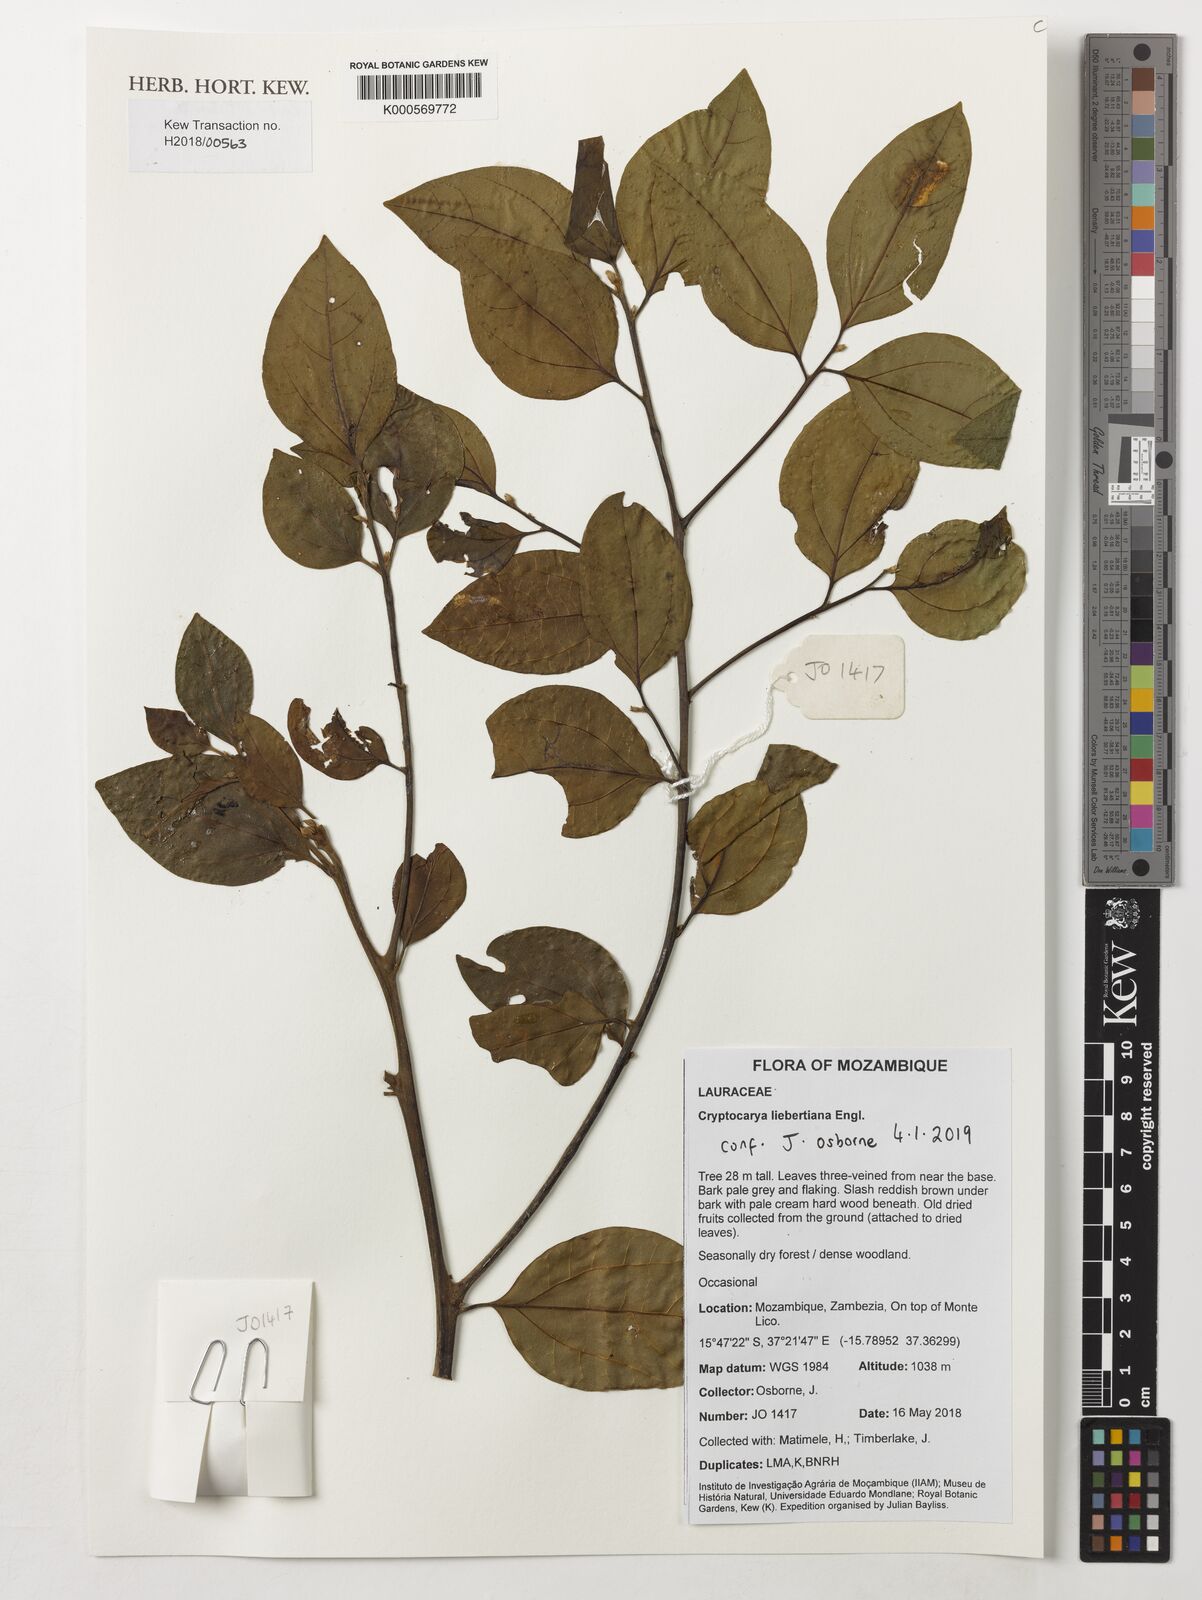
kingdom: Plantae
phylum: Tracheophyta
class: Magnoliopsida
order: Laurales
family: Lauraceae
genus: Cryptocarya
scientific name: Cryptocarya liebertiana
